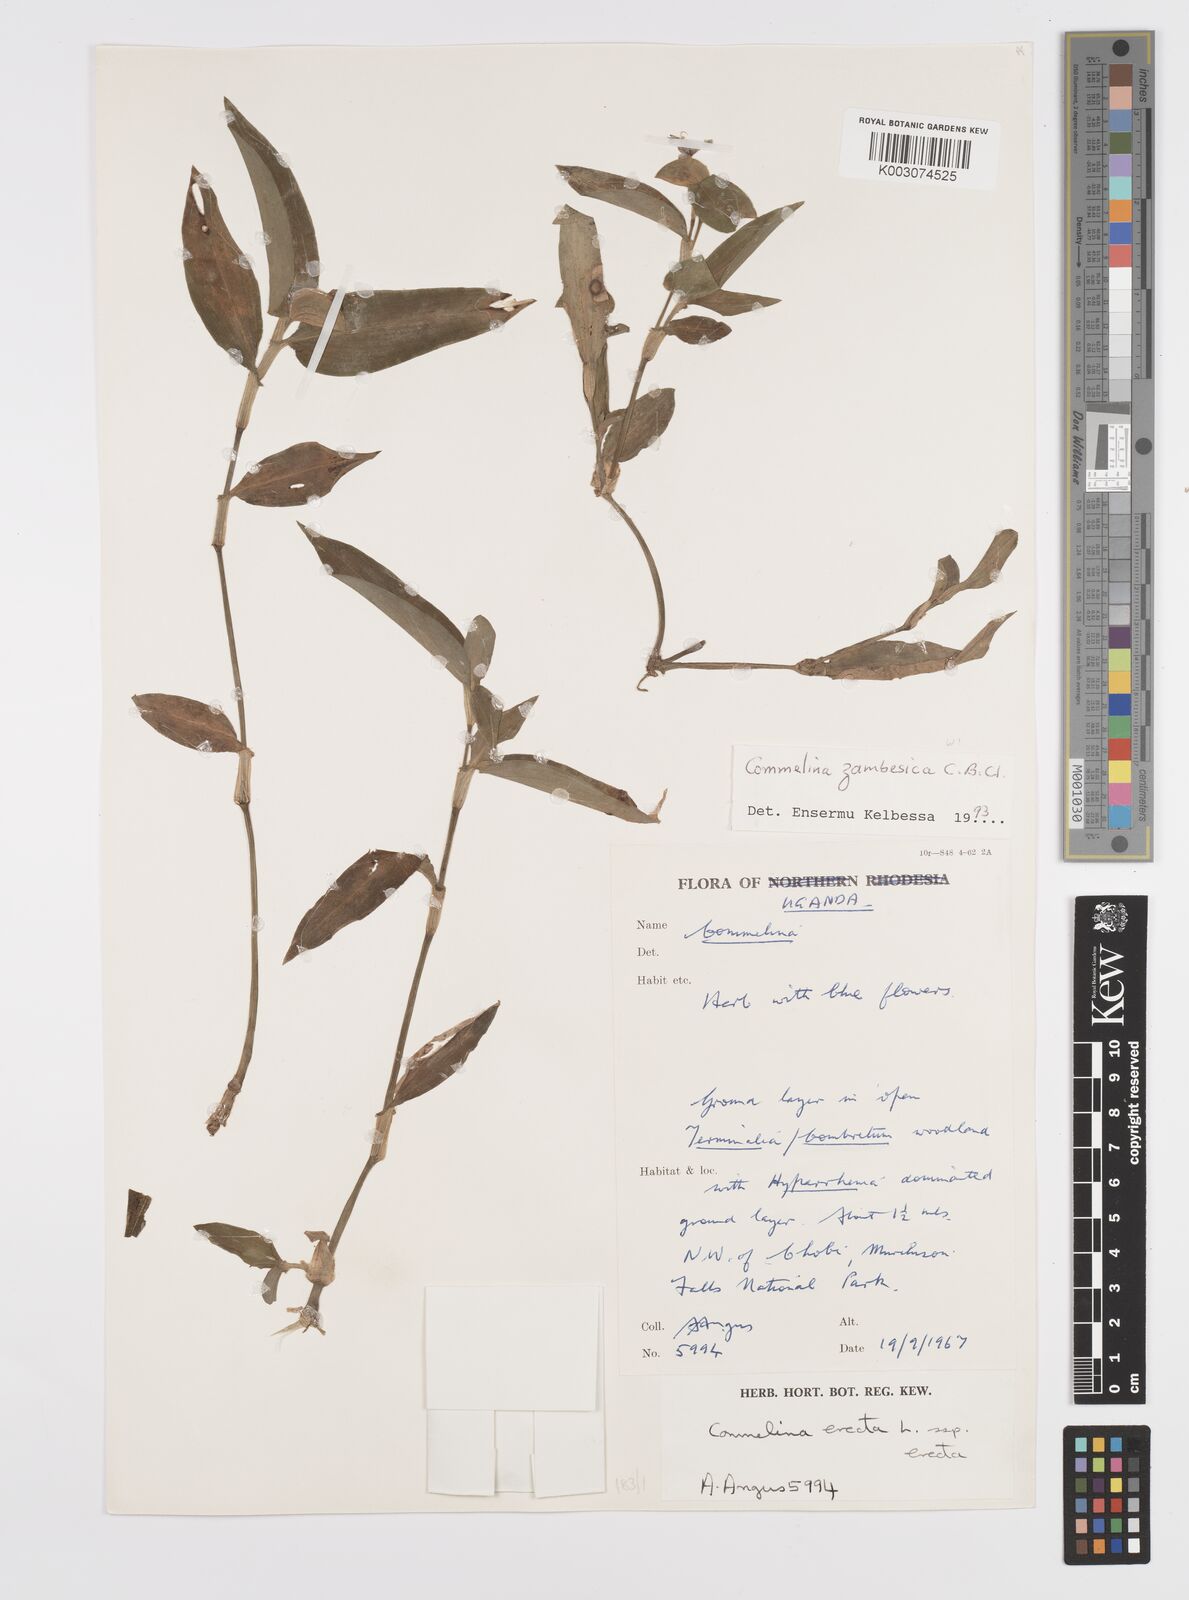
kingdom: Plantae
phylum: Tracheophyta
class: Liliopsida
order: Commelinales
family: Commelinaceae
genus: Commelina
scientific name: Commelina zambesica
